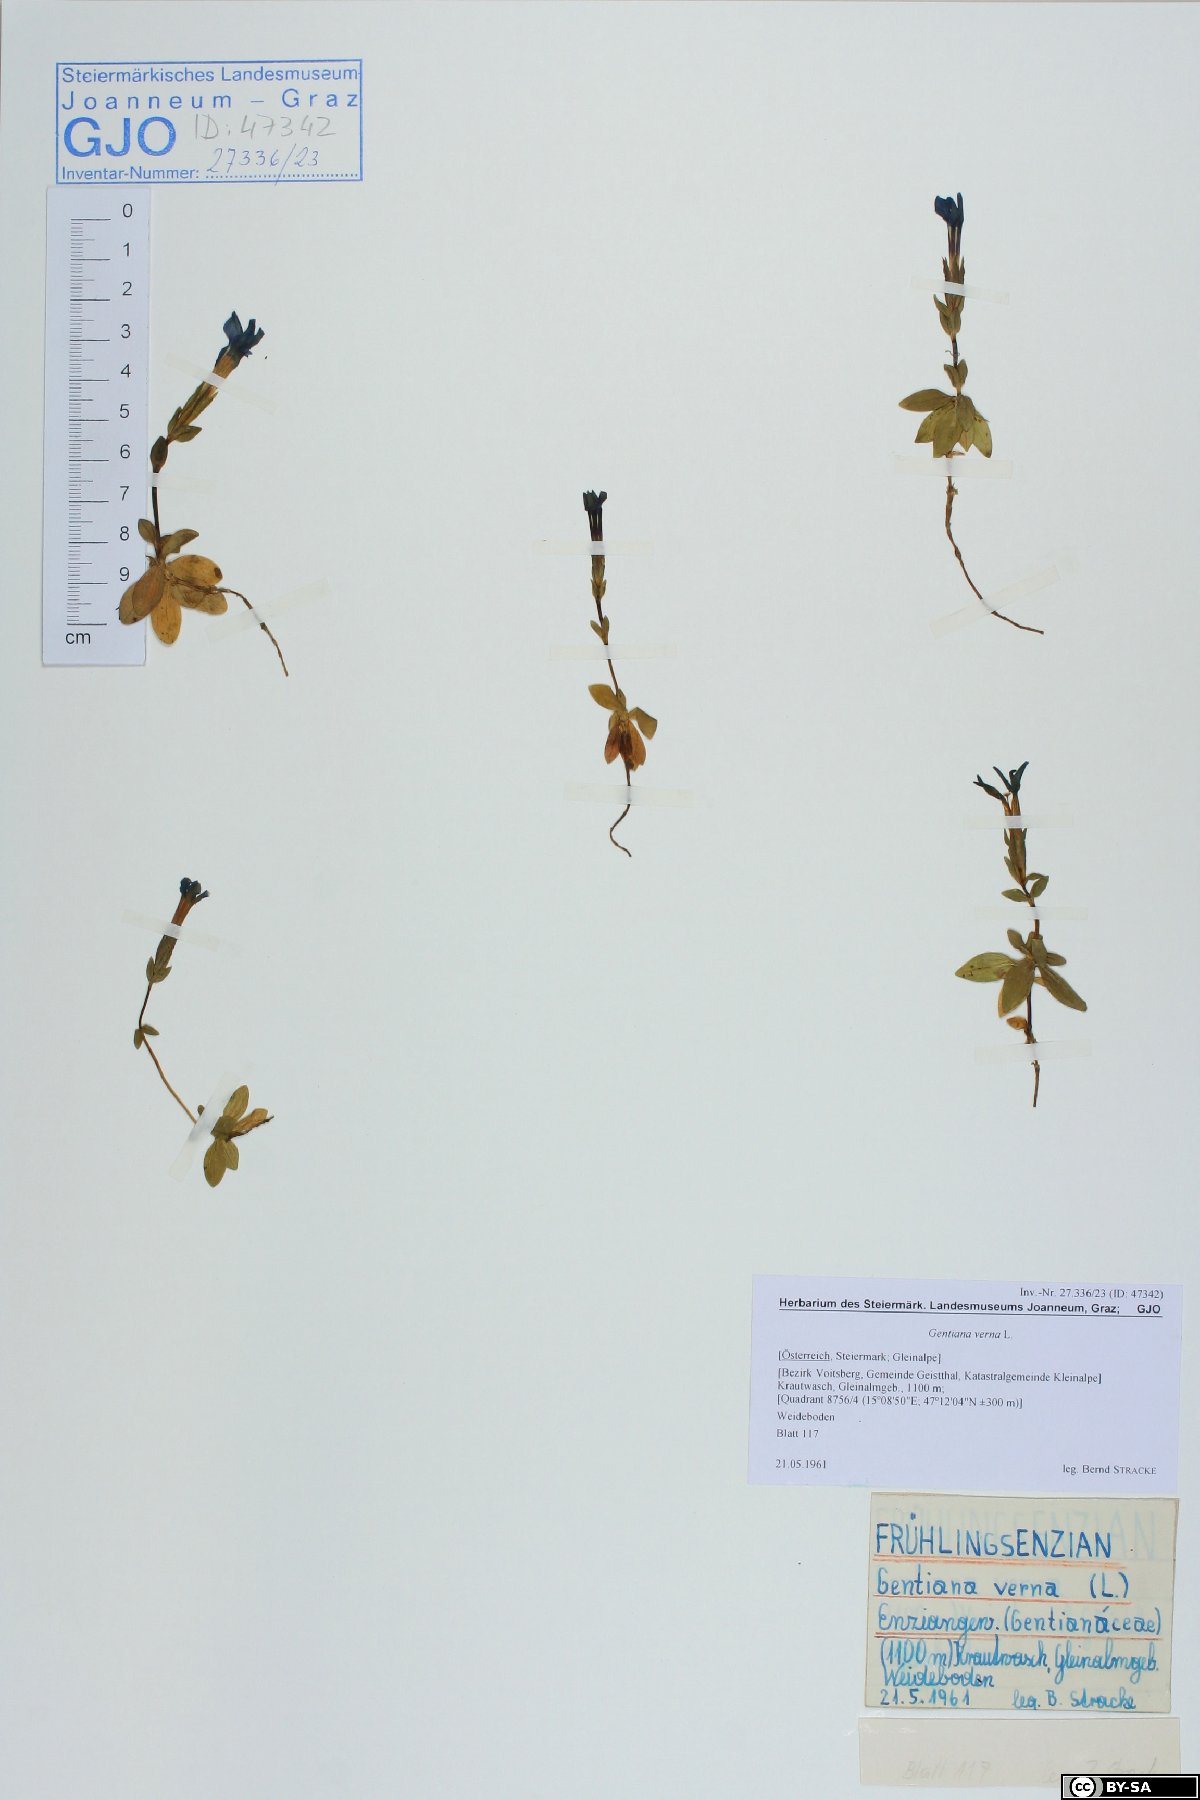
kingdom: Plantae
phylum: Tracheophyta
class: Magnoliopsida
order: Gentianales
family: Gentianaceae
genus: Gentiana
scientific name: Gentiana verna
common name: Spring gentian
